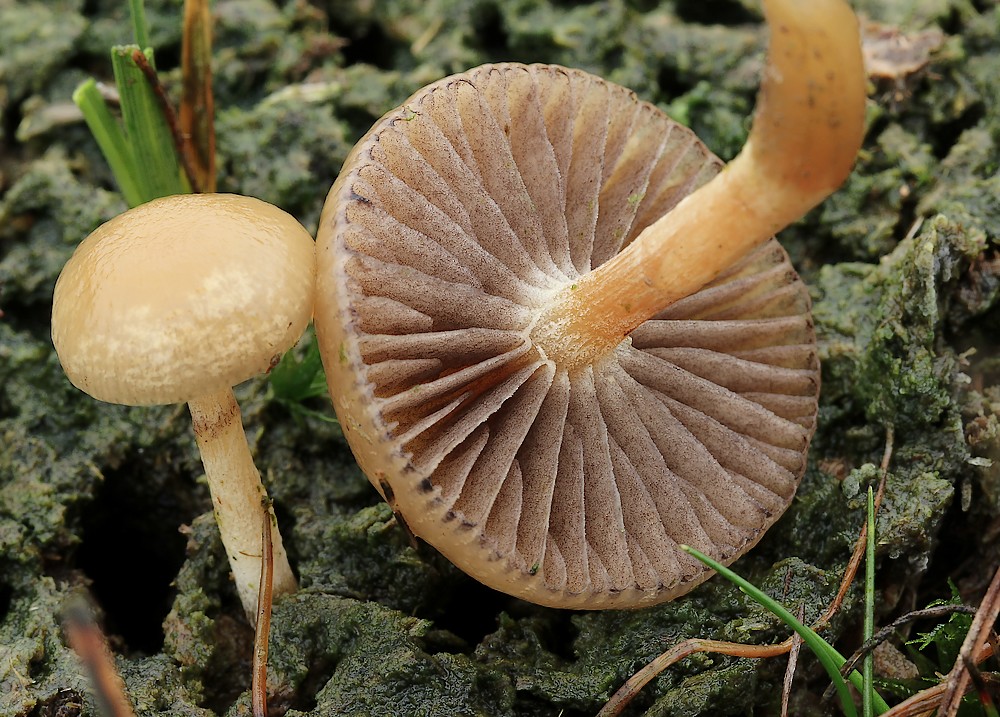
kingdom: Fungi
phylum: Basidiomycota
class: Agaricomycetes
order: Agaricales
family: Strophariaceae
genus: Protostropharia
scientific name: Protostropharia semiglobata
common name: halvkugleformet bredblad
